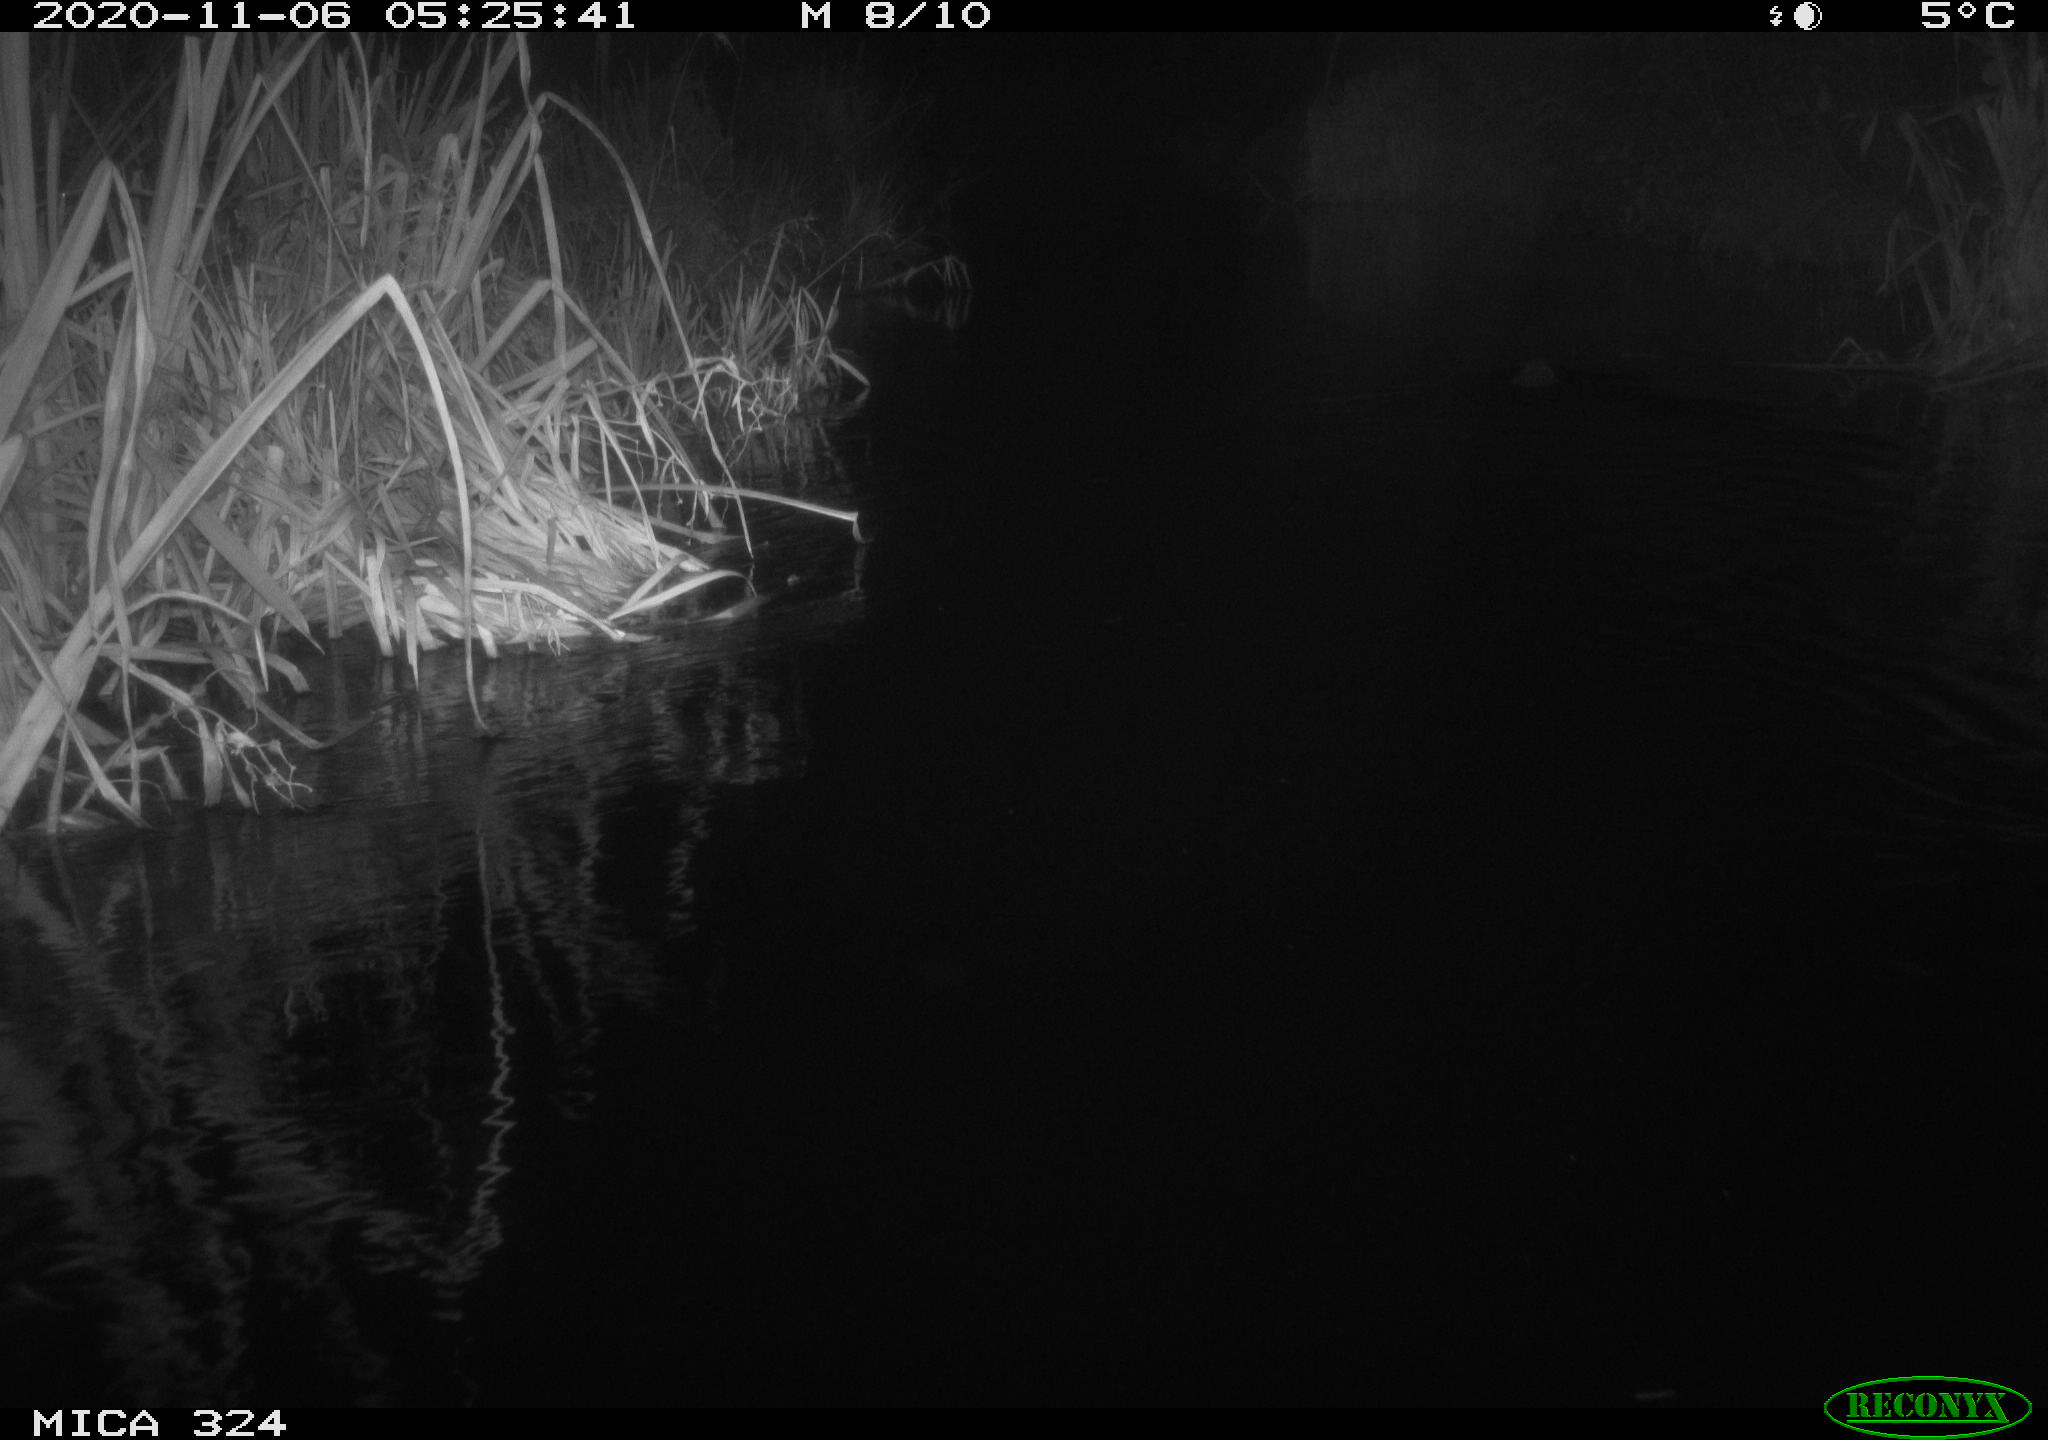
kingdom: Animalia
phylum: Chordata
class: Mammalia
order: Rodentia
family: Myocastoridae
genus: Myocastor
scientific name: Myocastor coypus
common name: Coypu
